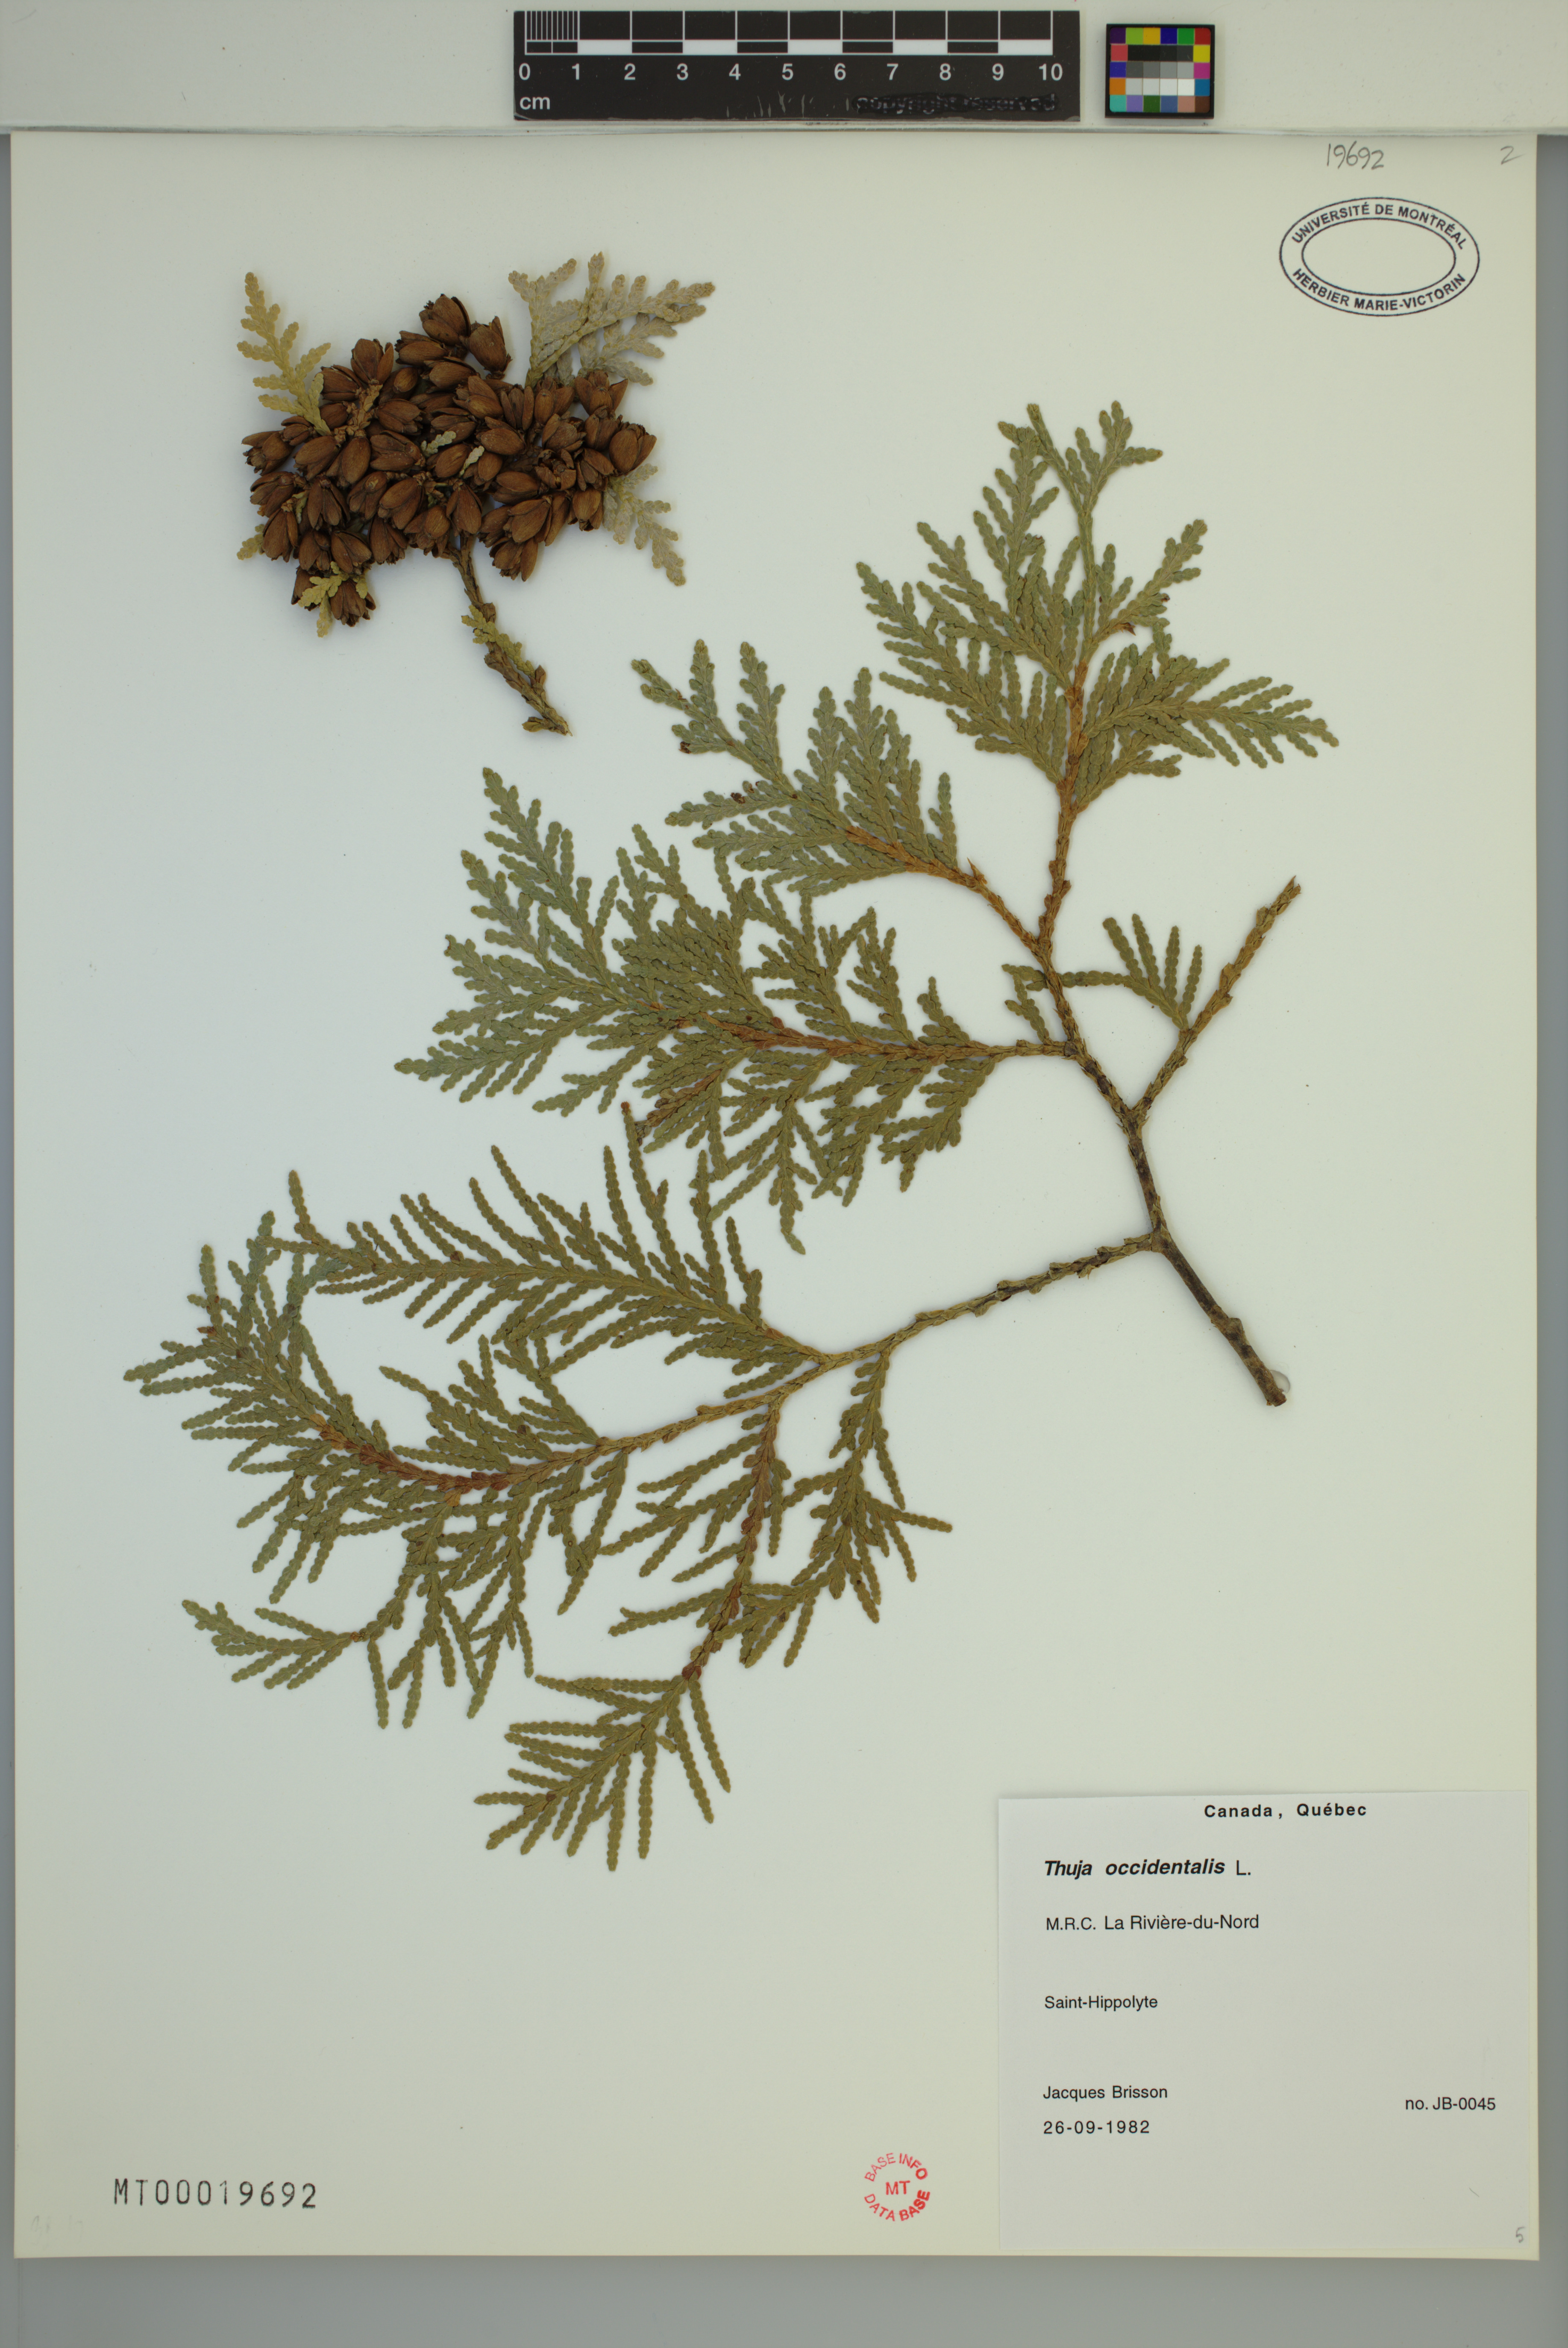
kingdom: Plantae
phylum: Tracheophyta
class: Pinopsida
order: Pinales
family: Cupressaceae
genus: Thuja
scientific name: Thuja occidentalis
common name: Northern white-cedar
